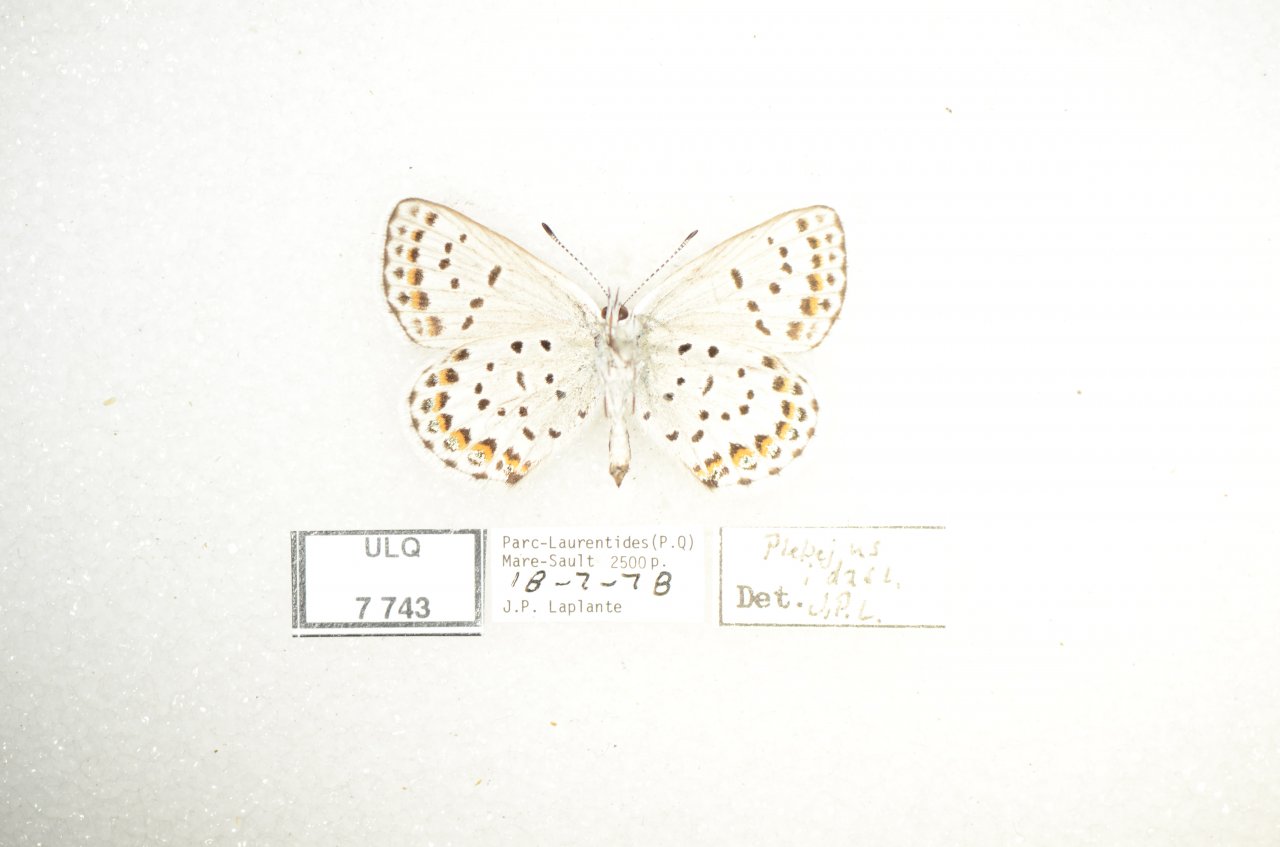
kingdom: Animalia
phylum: Arthropoda
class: Insecta
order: Lepidoptera
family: Lycaenidae
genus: Lycaeides
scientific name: Lycaeides idas
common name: Northern Blue
